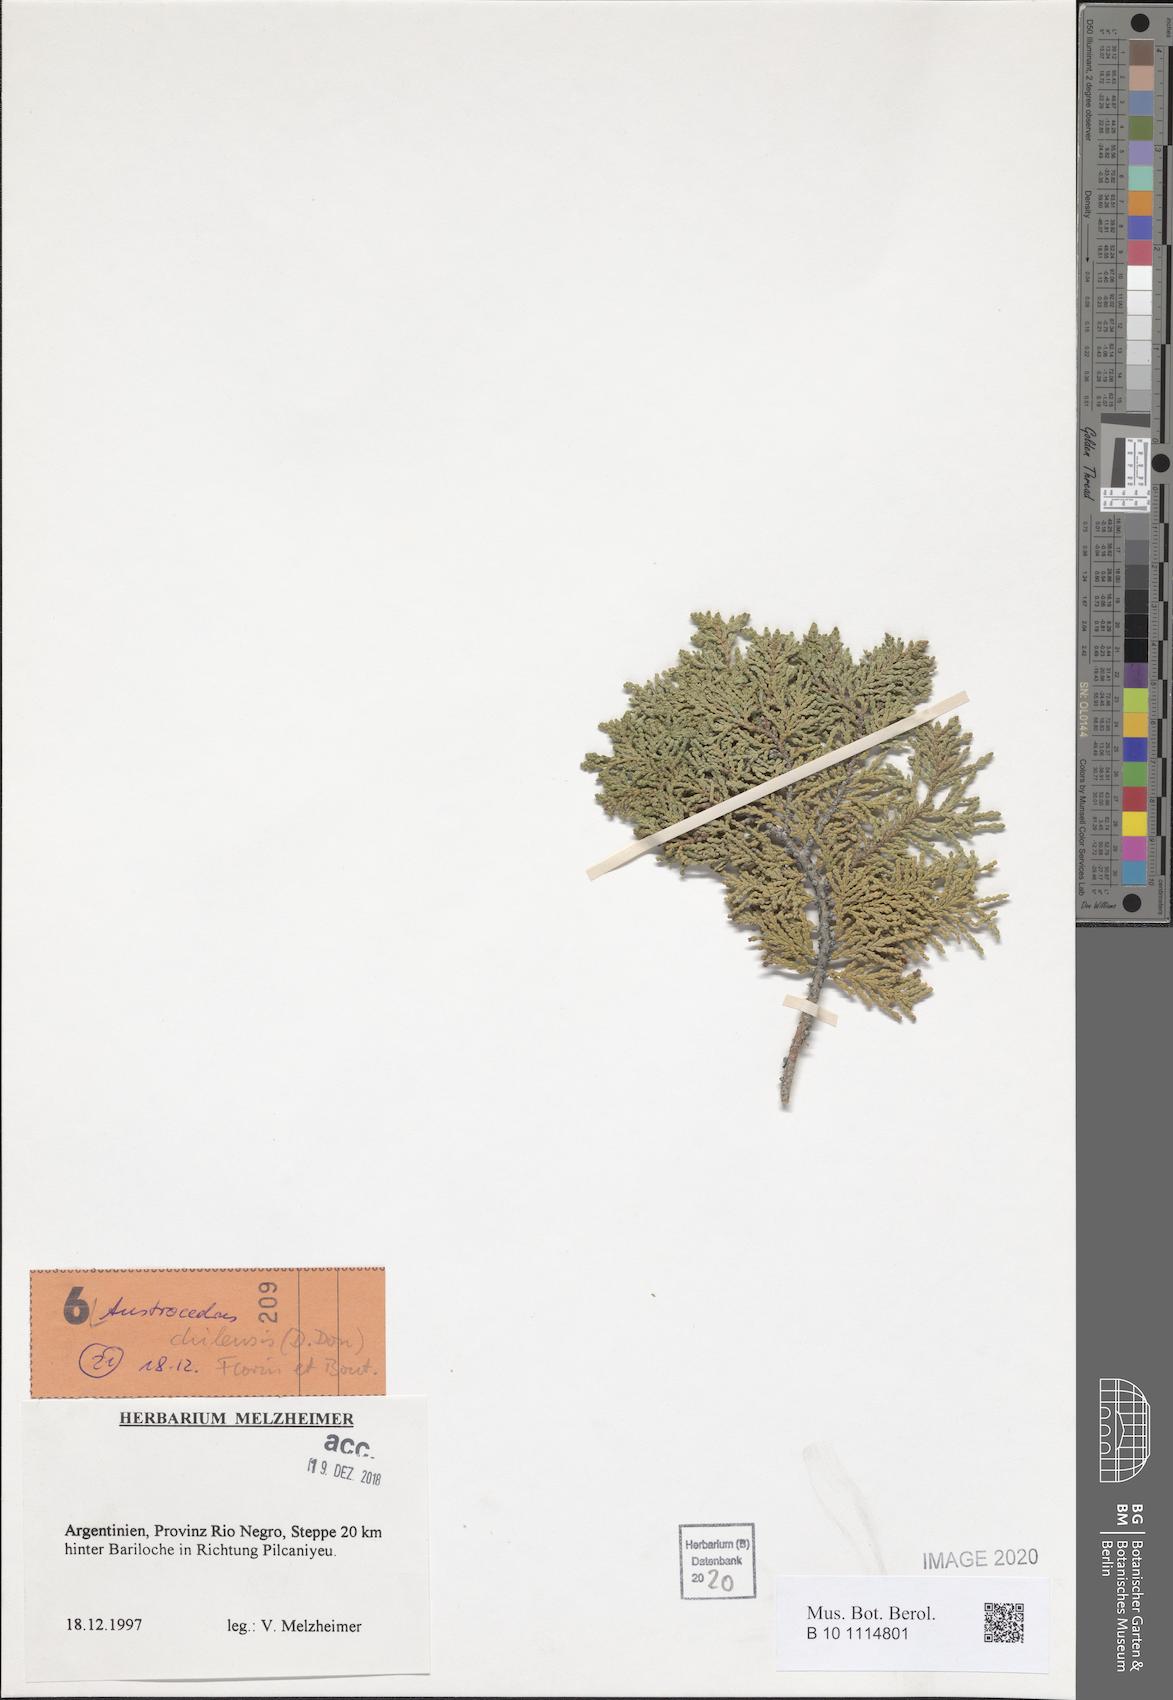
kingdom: Plantae
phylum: Tracheophyta
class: Pinopsida
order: Pinales
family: Cupressaceae
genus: Austrocedrus
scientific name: Austrocedrus chilensis
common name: Chilean incense-cedar
